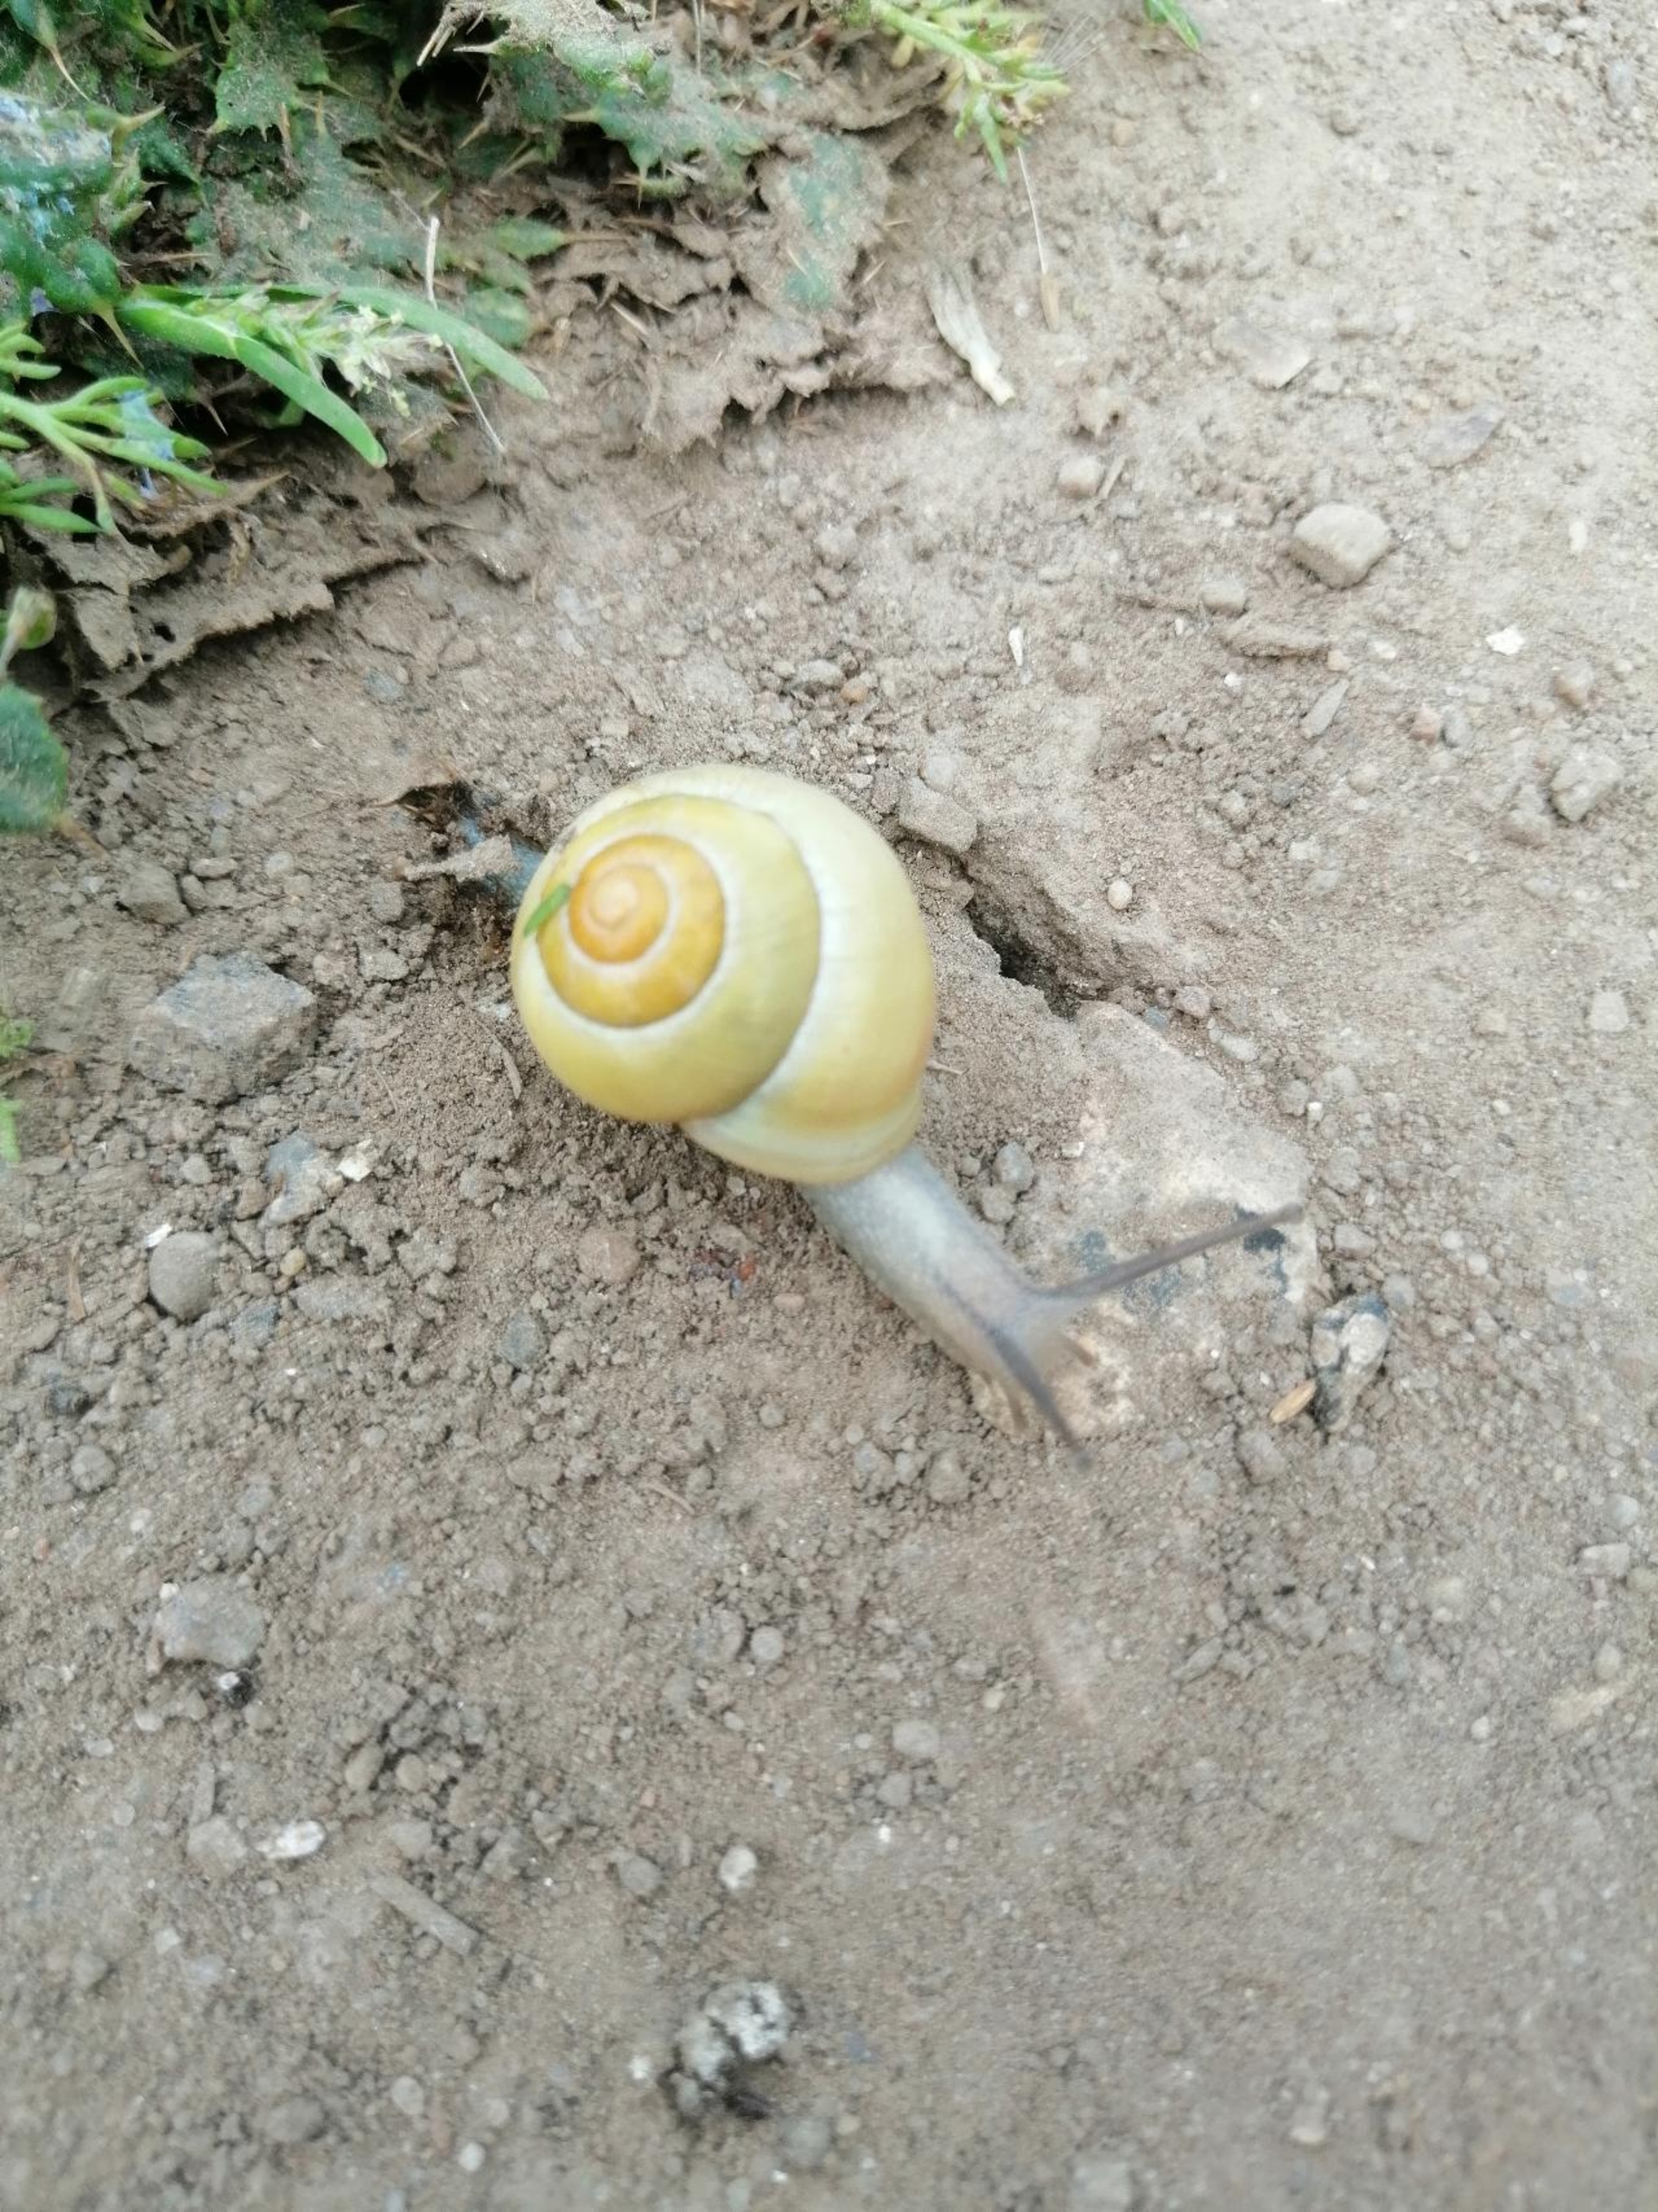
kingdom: Animalia
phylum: Mollusca
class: Gastropoda
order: Stylommatophora
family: Helicidae
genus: Cepaea
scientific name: Cepaea hortensis
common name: Havesnegl
